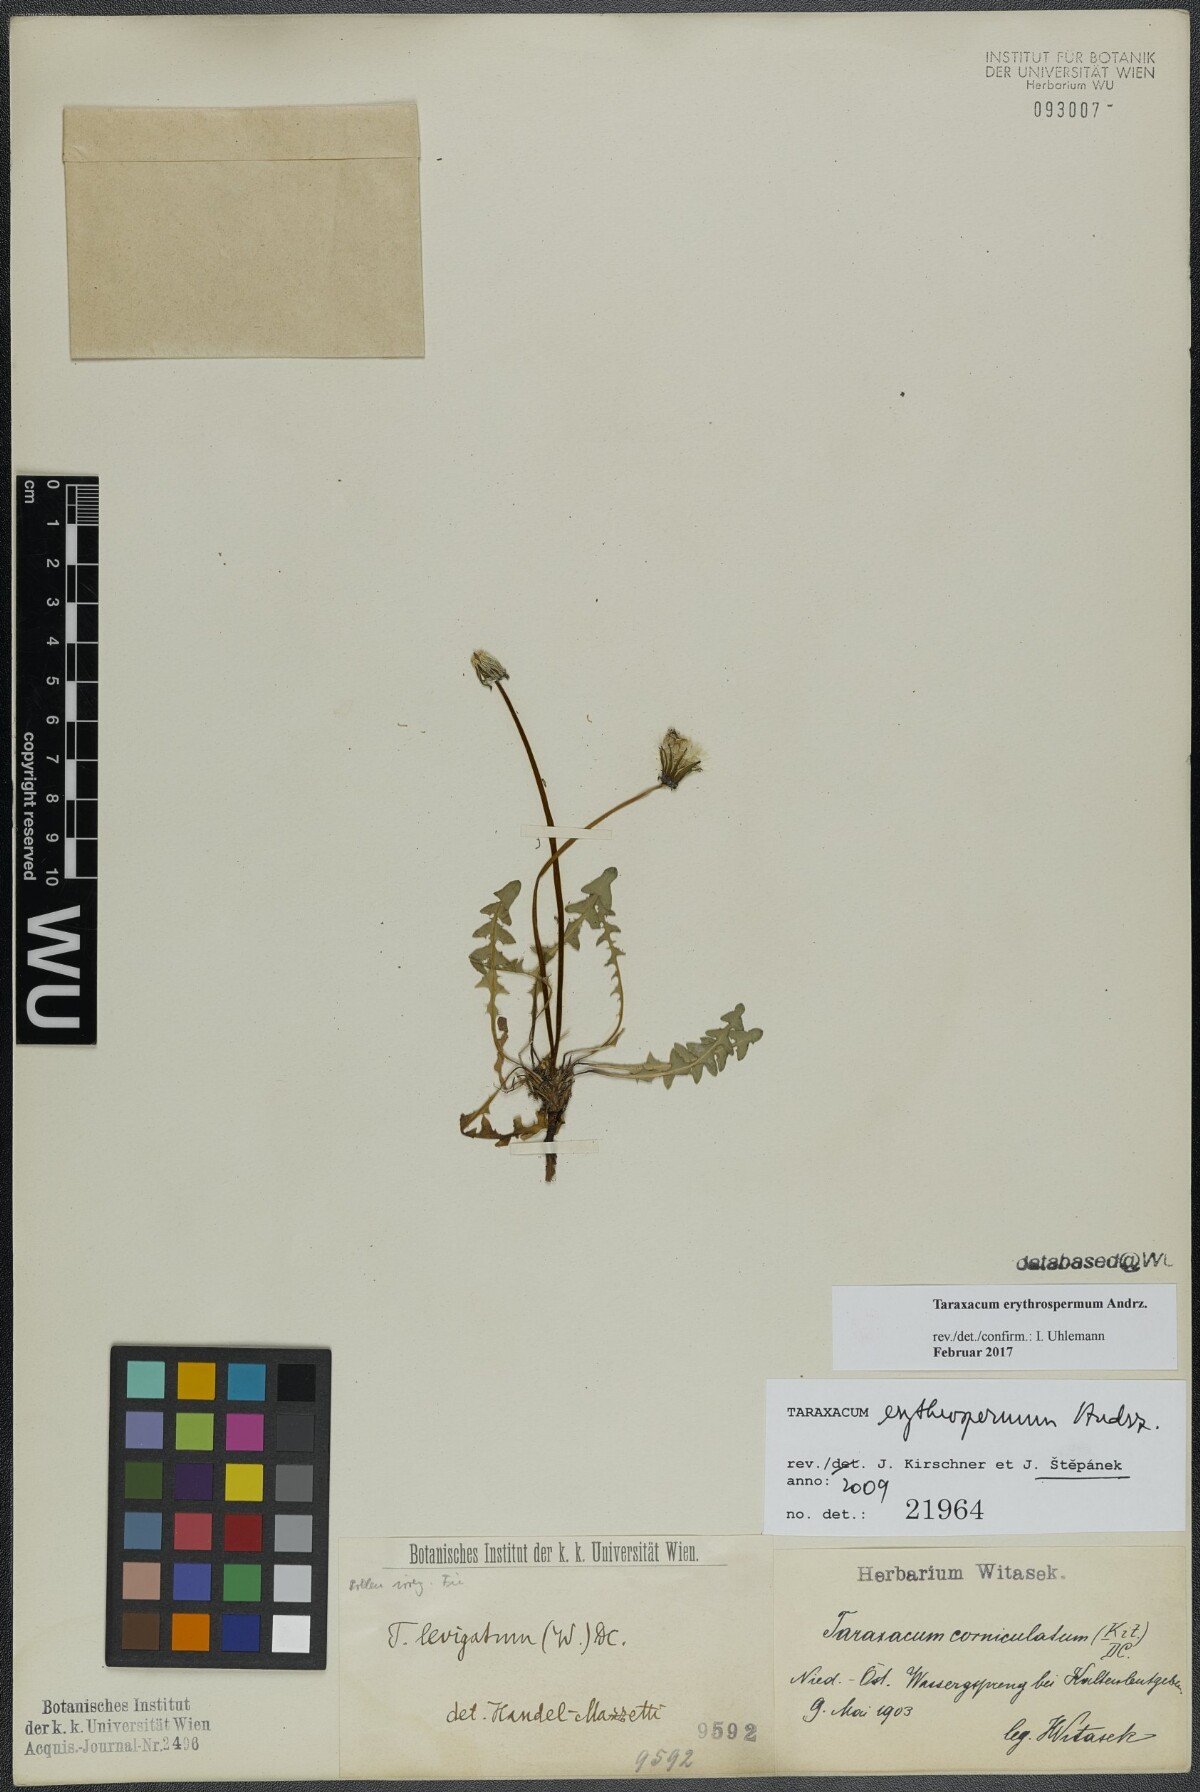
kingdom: Plantae
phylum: Tracheophyta
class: Magnoliopsida
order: Asterales
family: Asteraceae
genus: Taraxacum
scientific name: Taraxacum erythrospermum
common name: Rock dandelion
